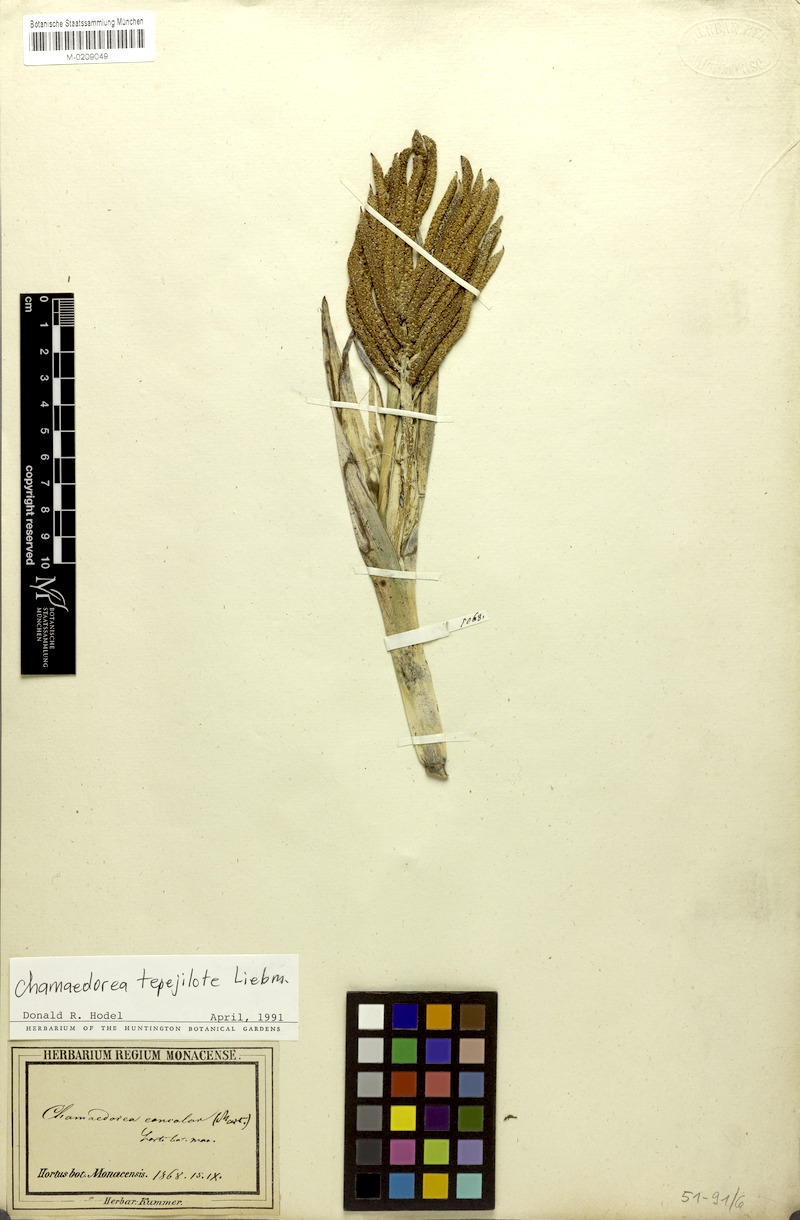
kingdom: Plantae
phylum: Tracheophyta
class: Liliopsida
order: Arecales
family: Arecaceae
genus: Chamaedorea
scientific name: Chamaedorea tepejilote
